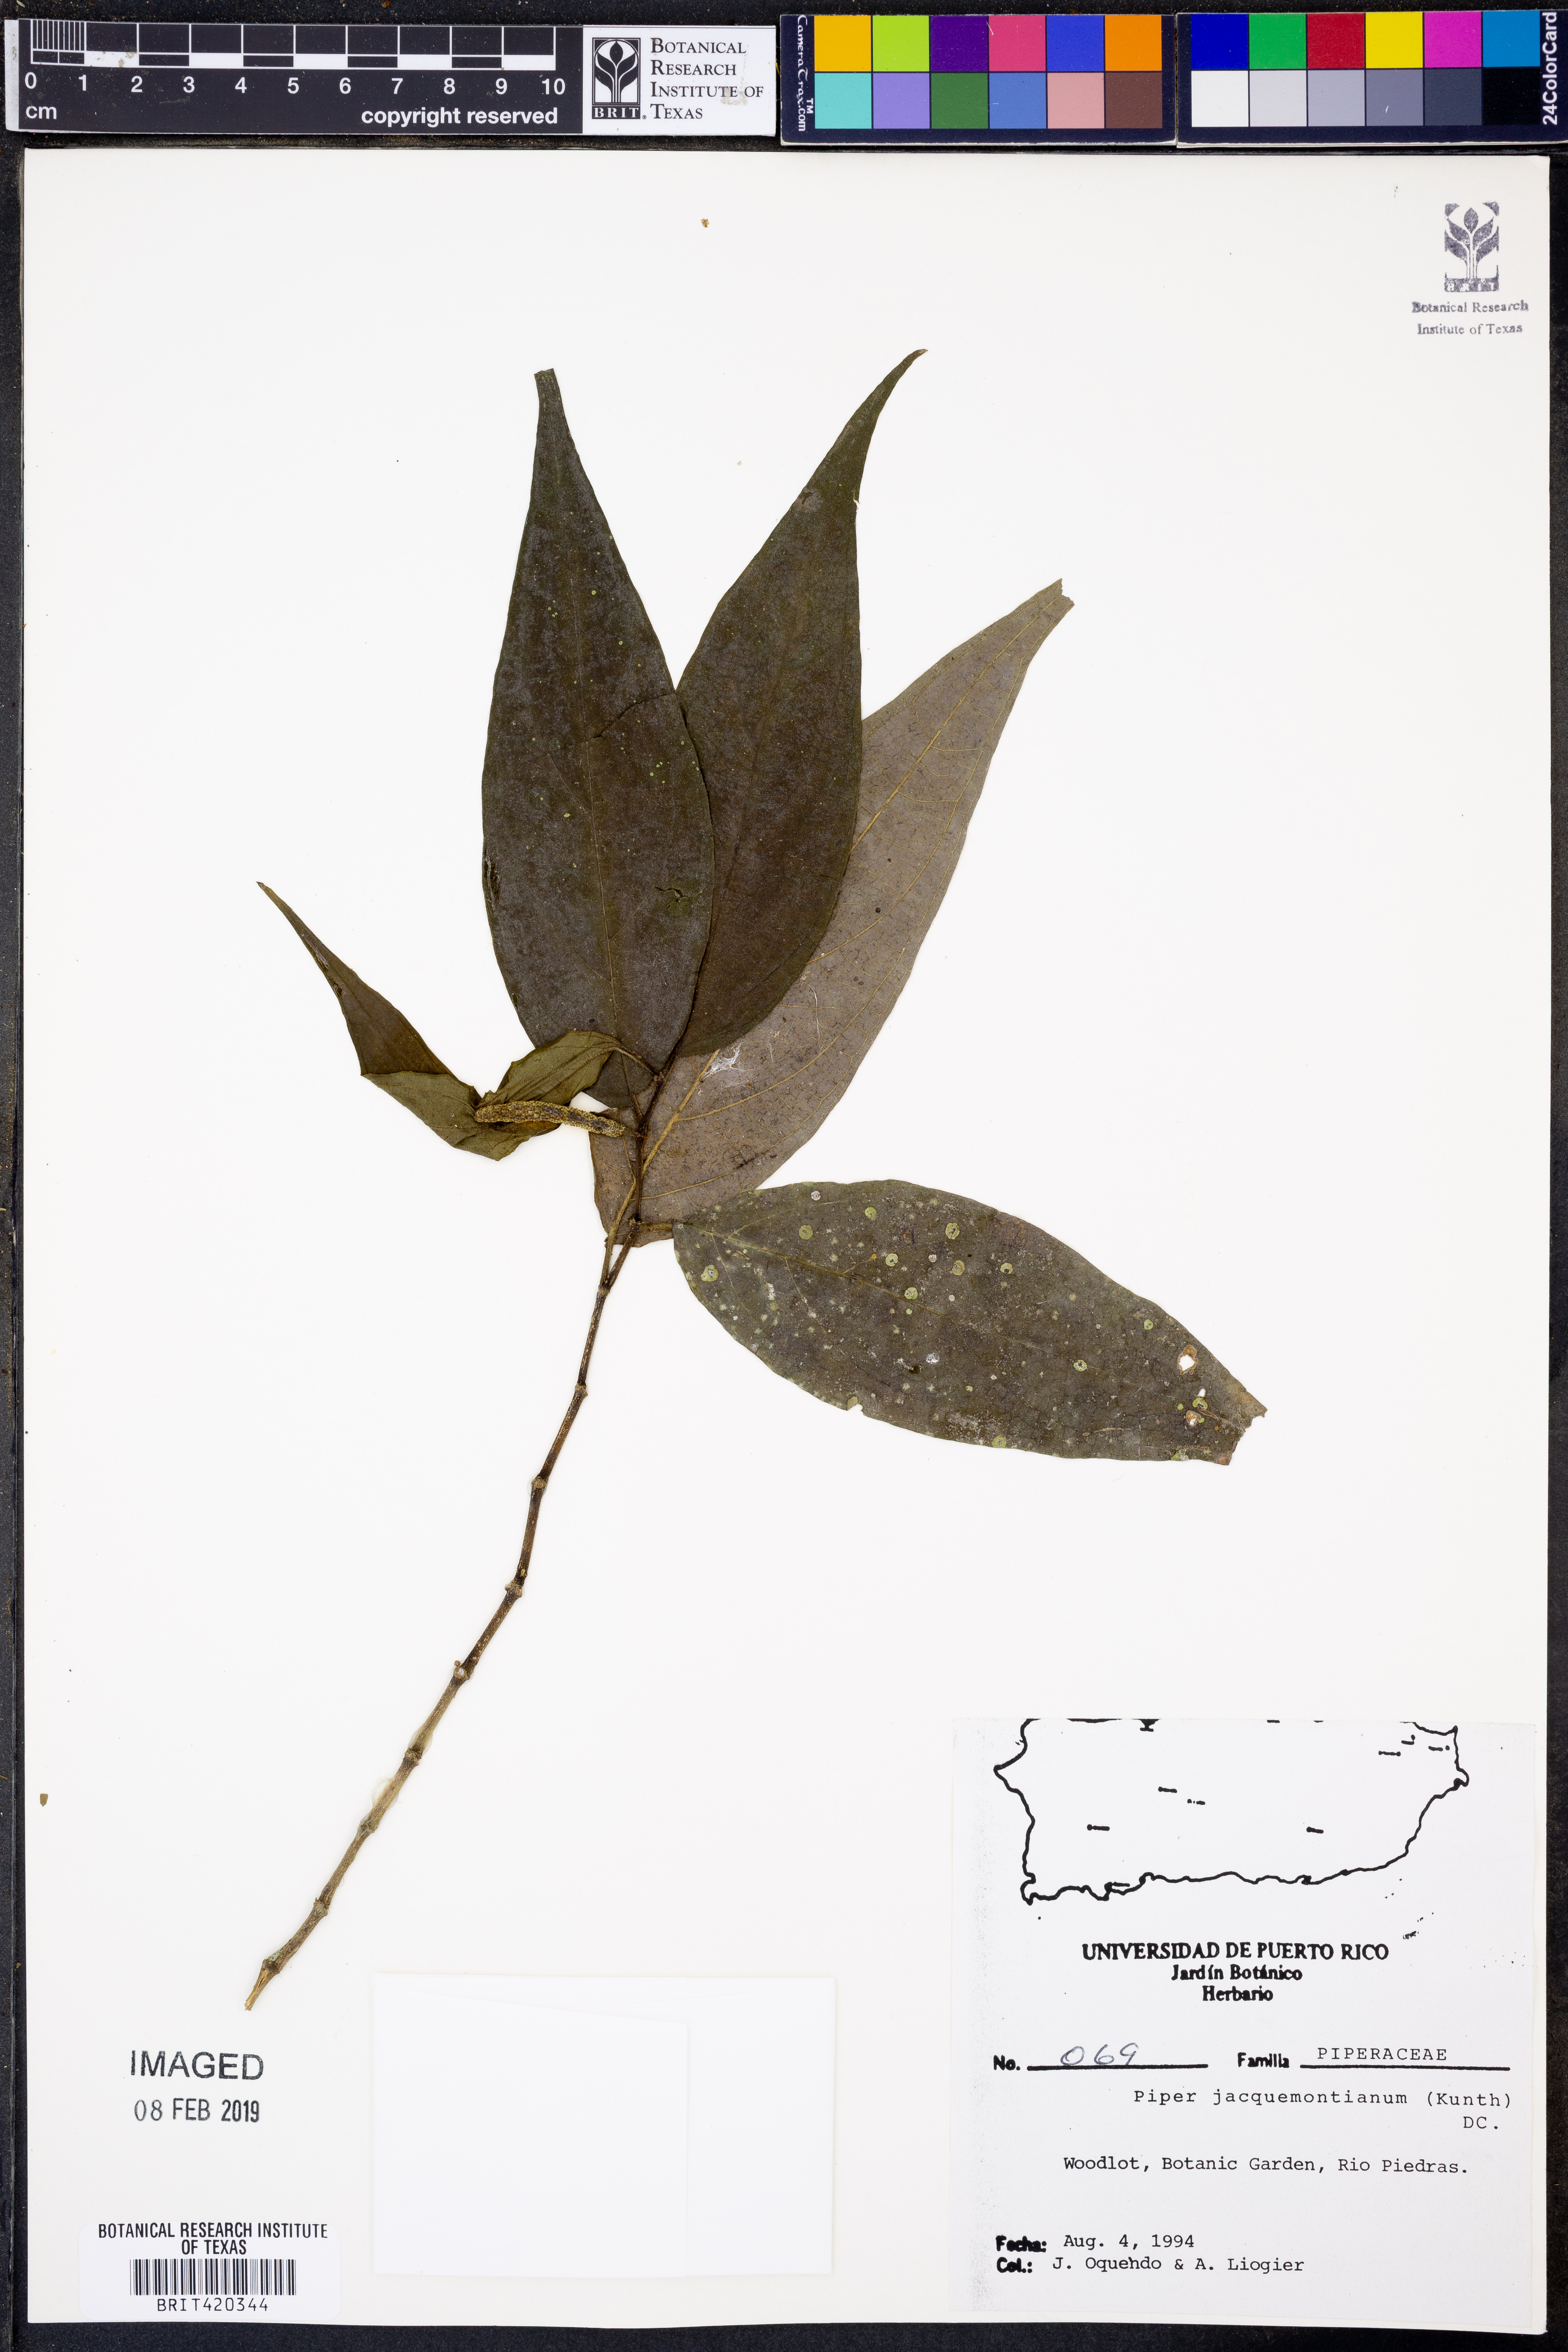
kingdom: Plantae
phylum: Tracheophyta
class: Magnoliopsida
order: Piperales
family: Piperaceae
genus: Piper
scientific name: Piper jacquemontianum
